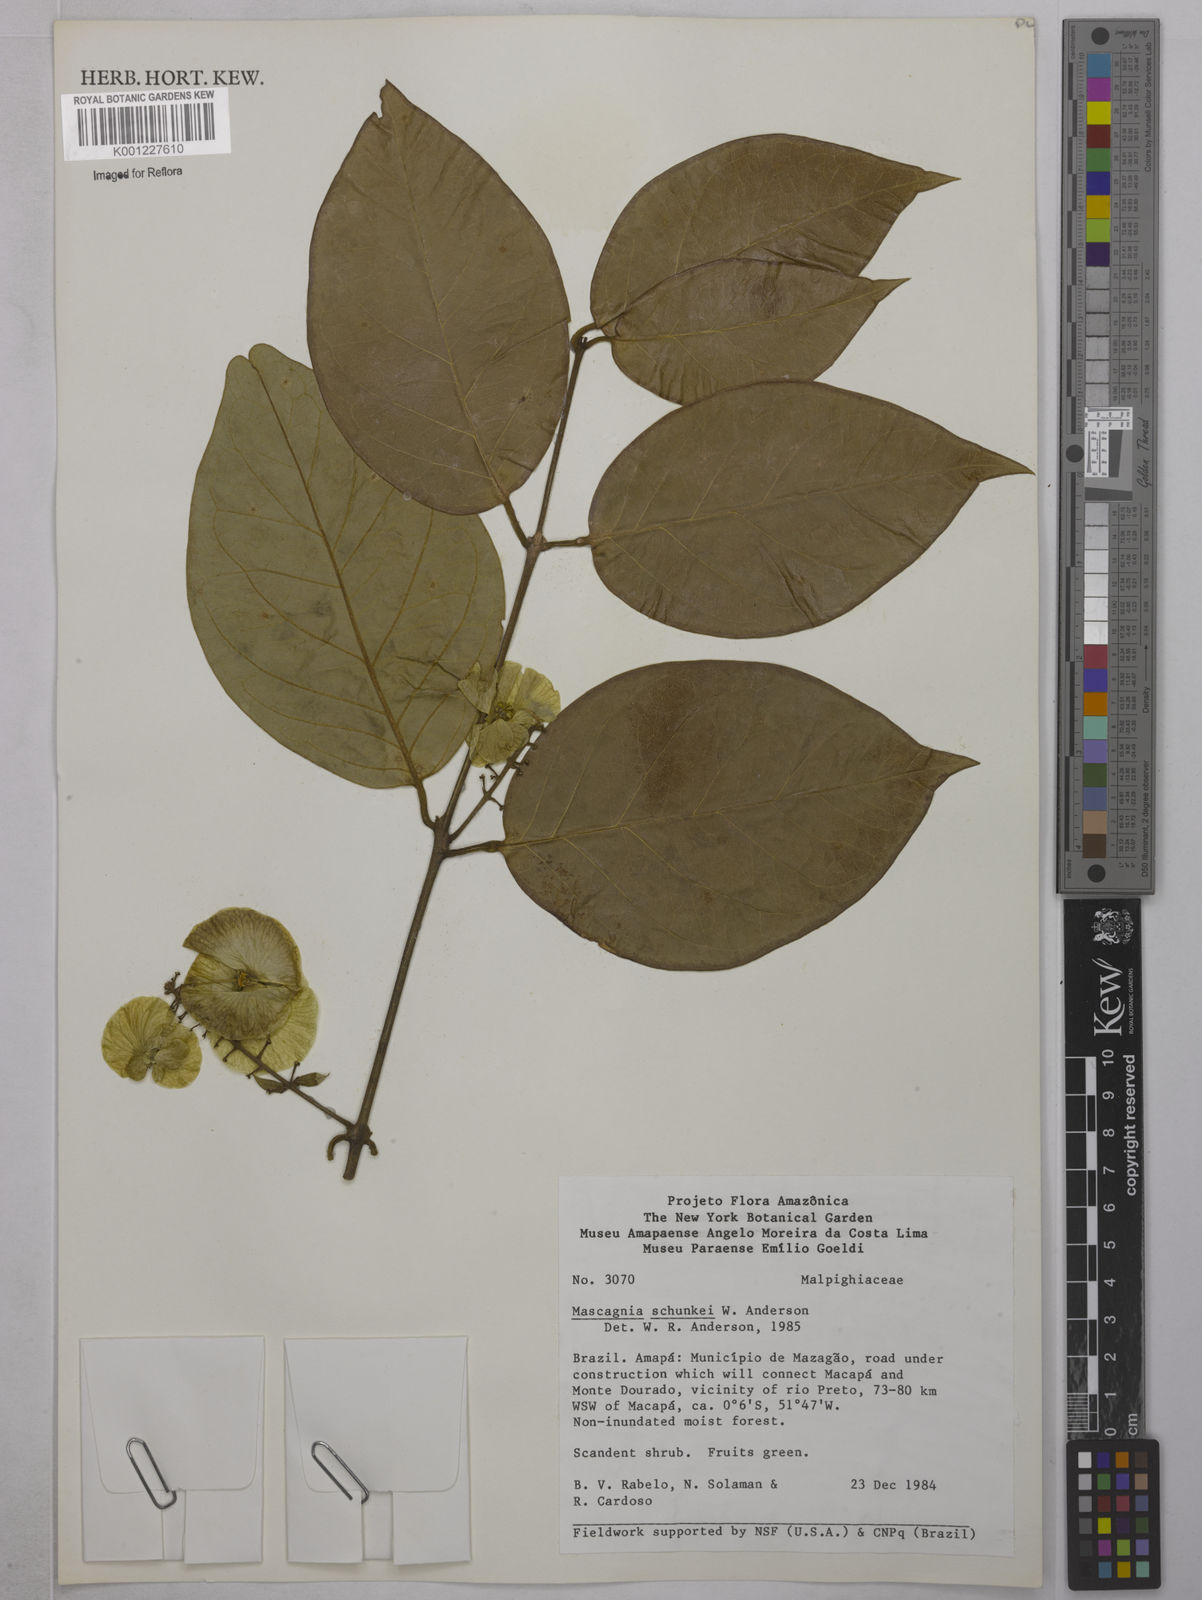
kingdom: Plantae
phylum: Tracheophyta
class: Magnoliopsida
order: Malpighiales
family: Malpighiaceae
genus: Mascagnia
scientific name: Mascagnia schunkei
